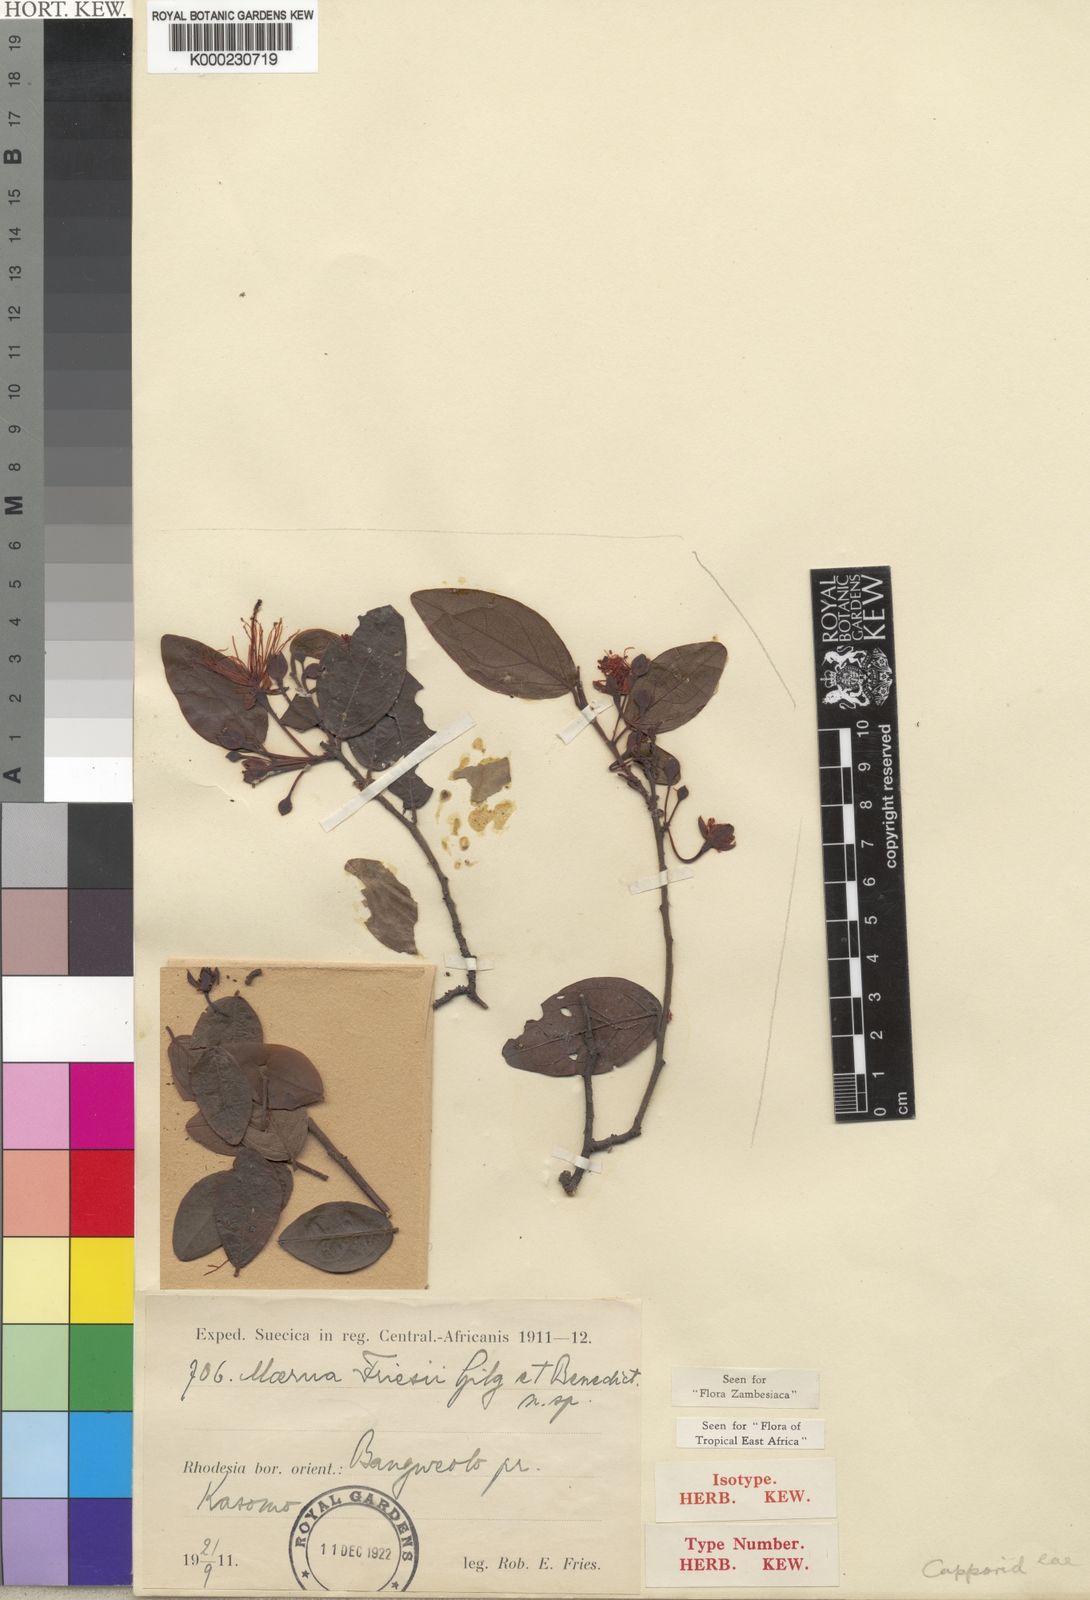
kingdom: Plantae
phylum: Tracheophyta
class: Magnoliopsida
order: Brassicales
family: Capparaceae
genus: Maerua
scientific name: Maerua friesii
